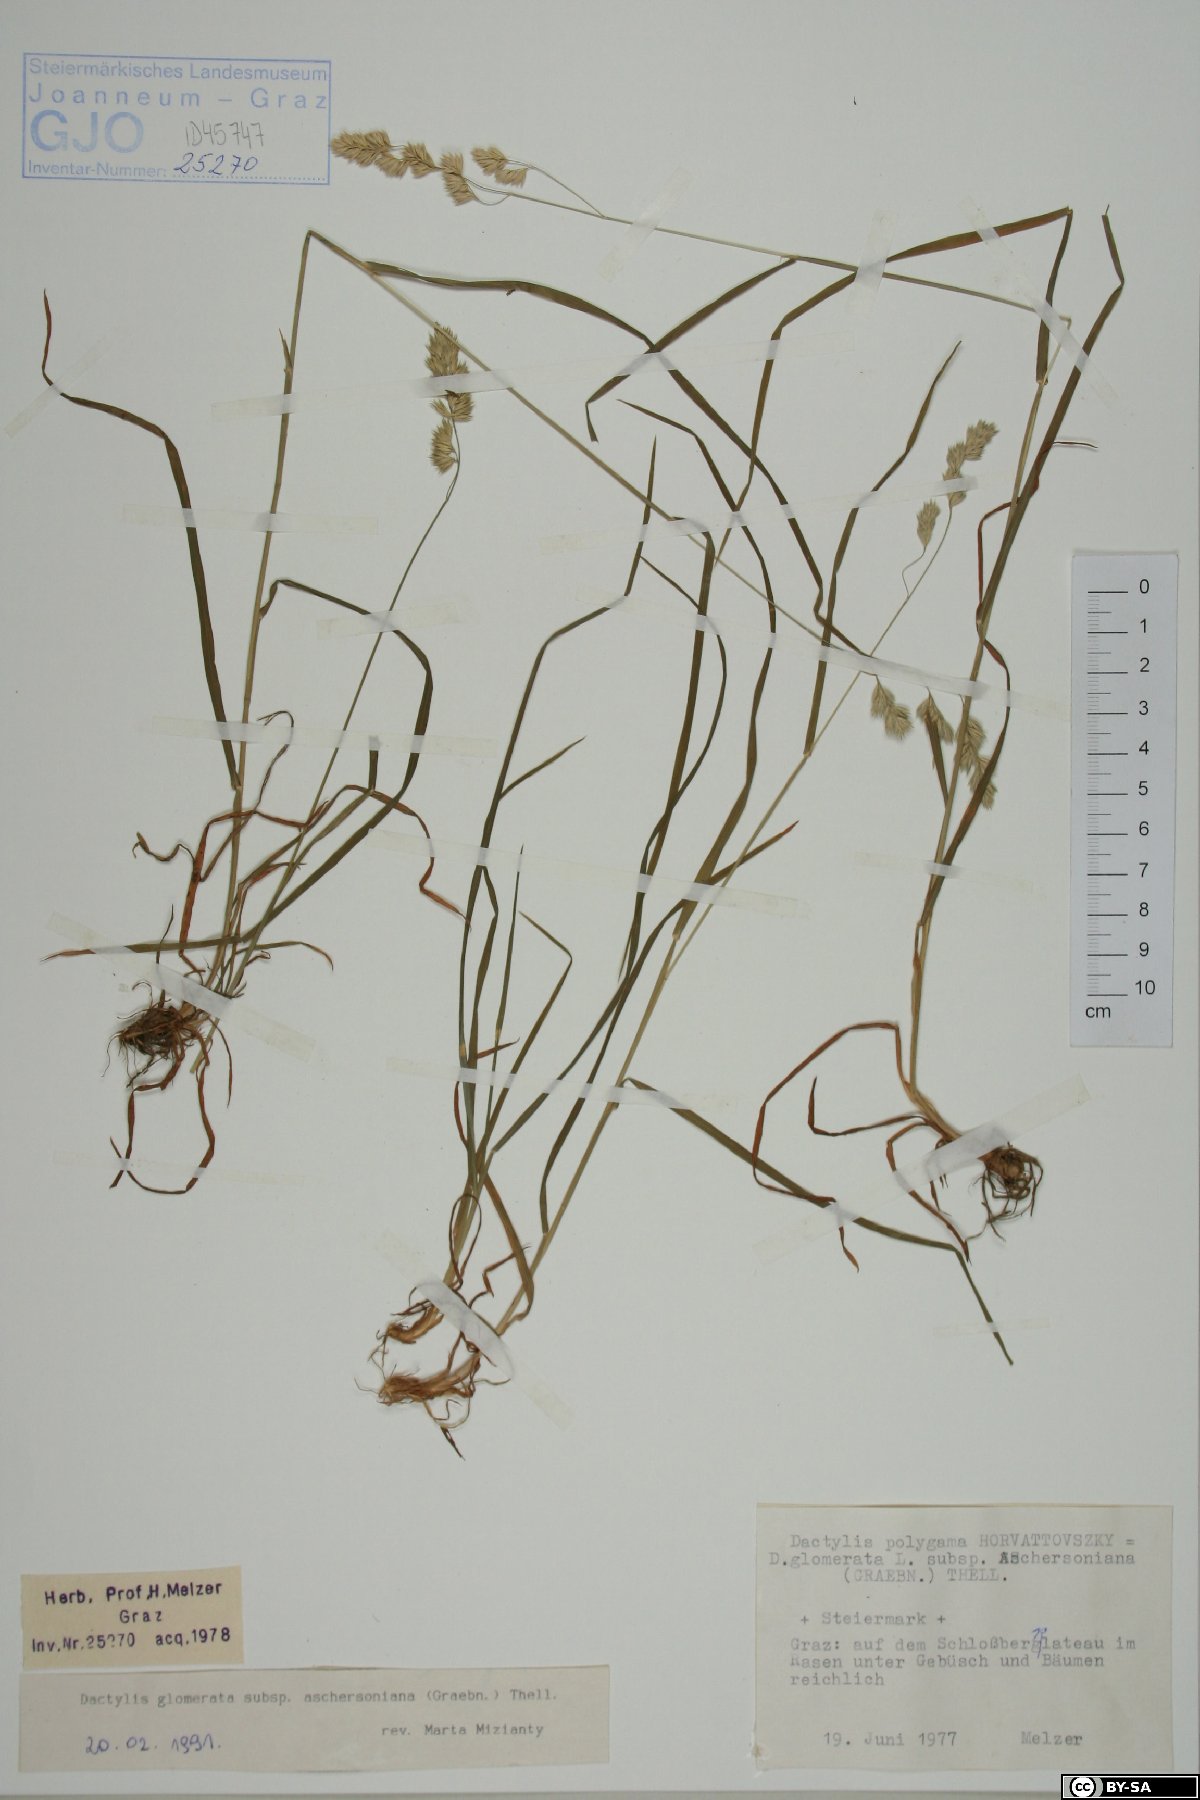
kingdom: Plantae
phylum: Tracheophyta
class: Liliopsida
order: Poales
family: Poaceae
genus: Dactylis
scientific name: Dactylis glomerata
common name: Orchardgrass
